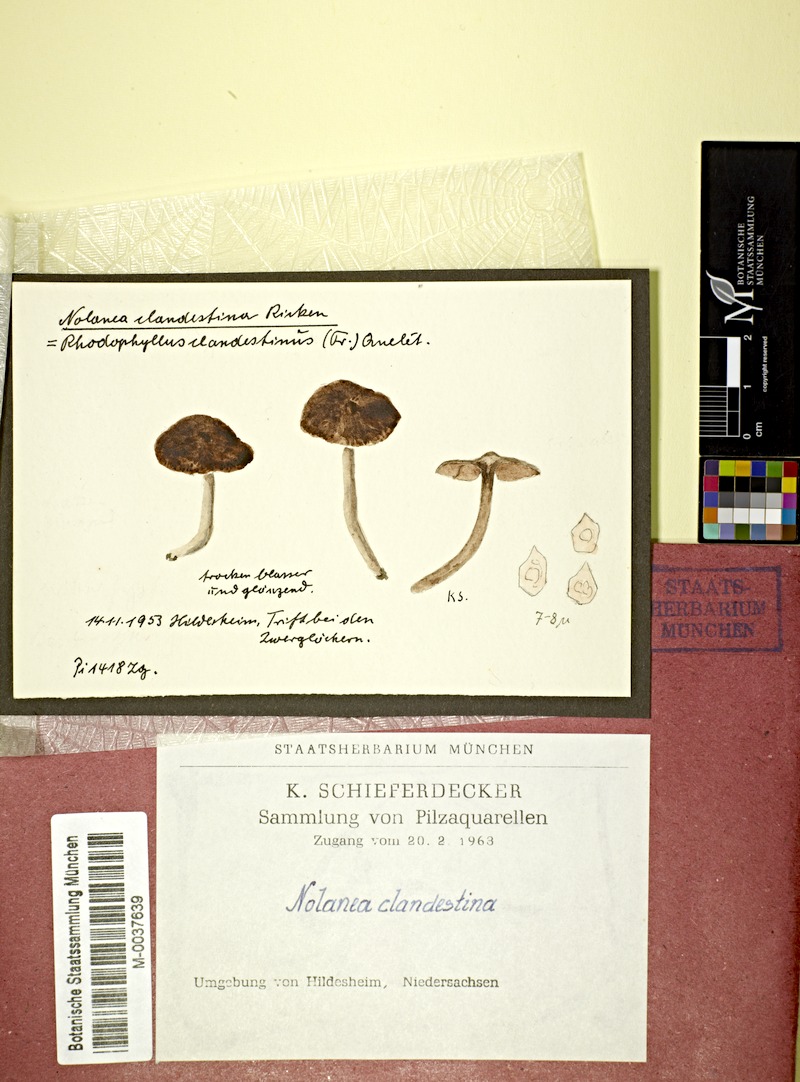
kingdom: Fungi
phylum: Basidiomycota
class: Agaricomycetes
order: Agaricales
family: Entolomataceae
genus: Entoloma
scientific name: Entoloma clandestinum
